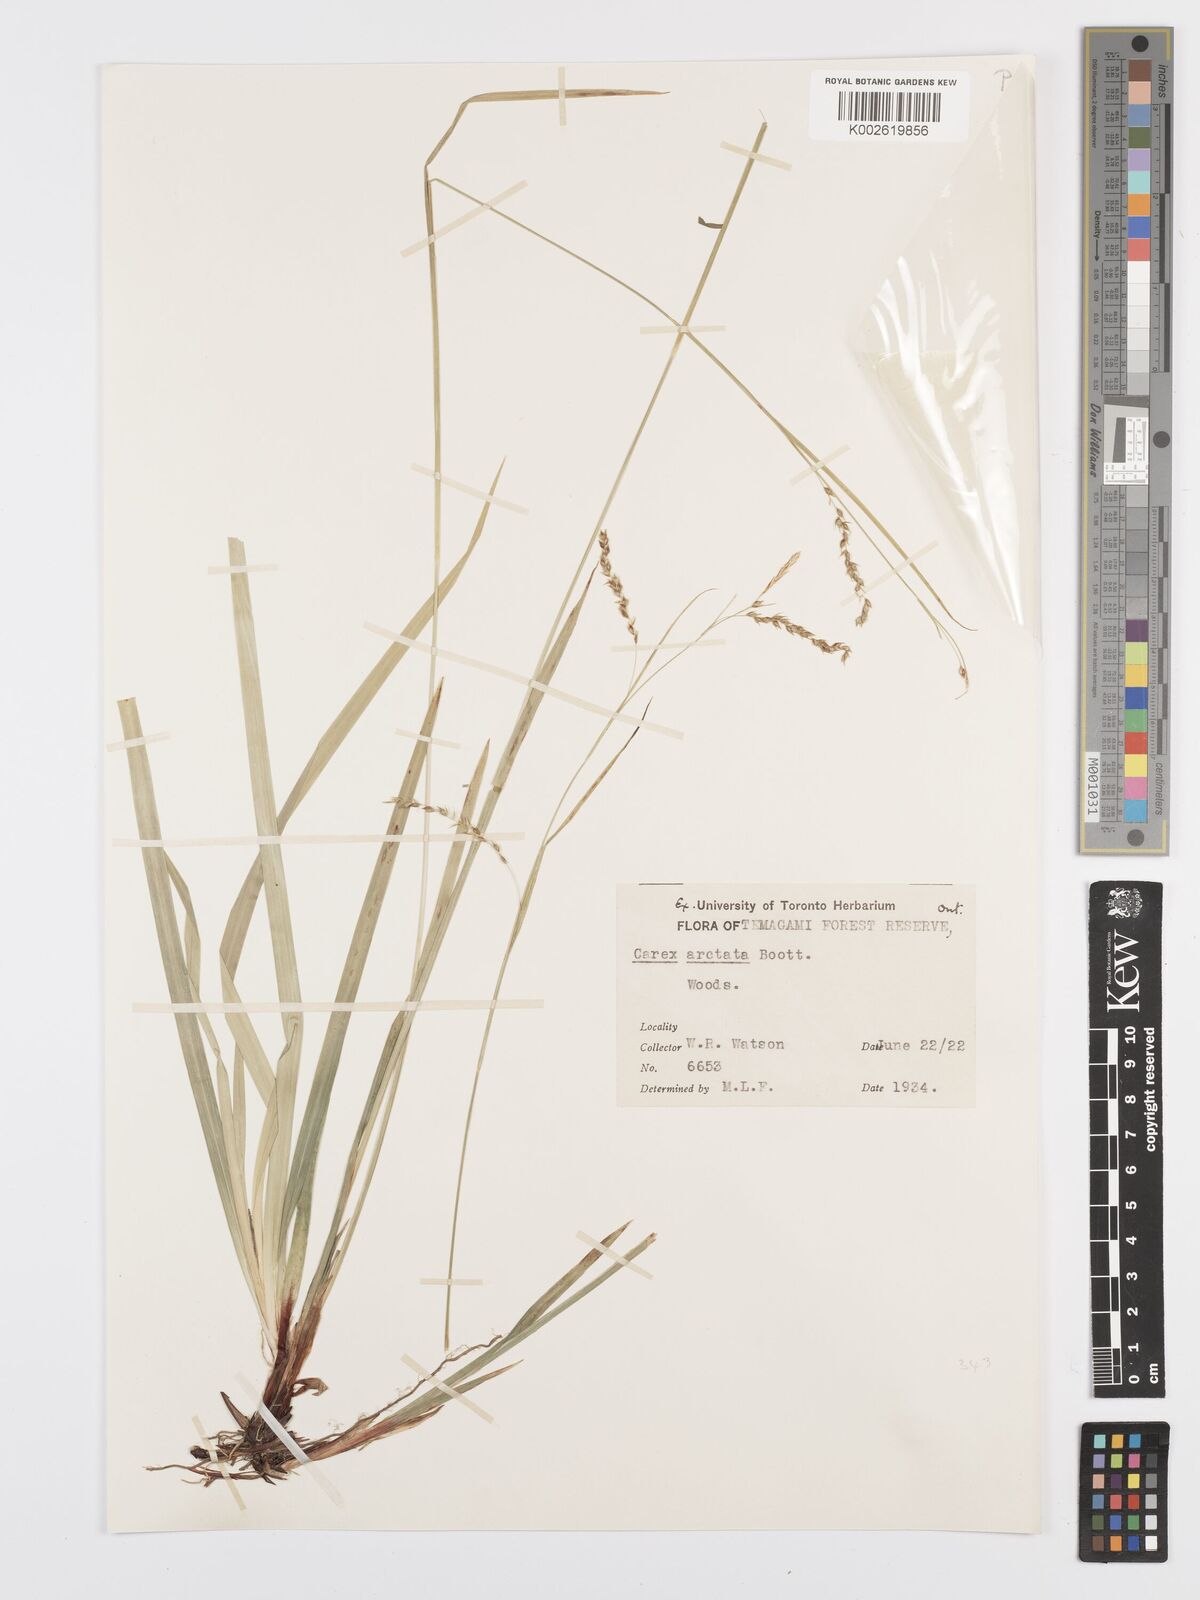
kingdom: Plantae
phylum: Tracheophyta
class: Liliopsida
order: Poales
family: Cyperaceae
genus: Carex
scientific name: Carex arctata
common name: Black sedge
